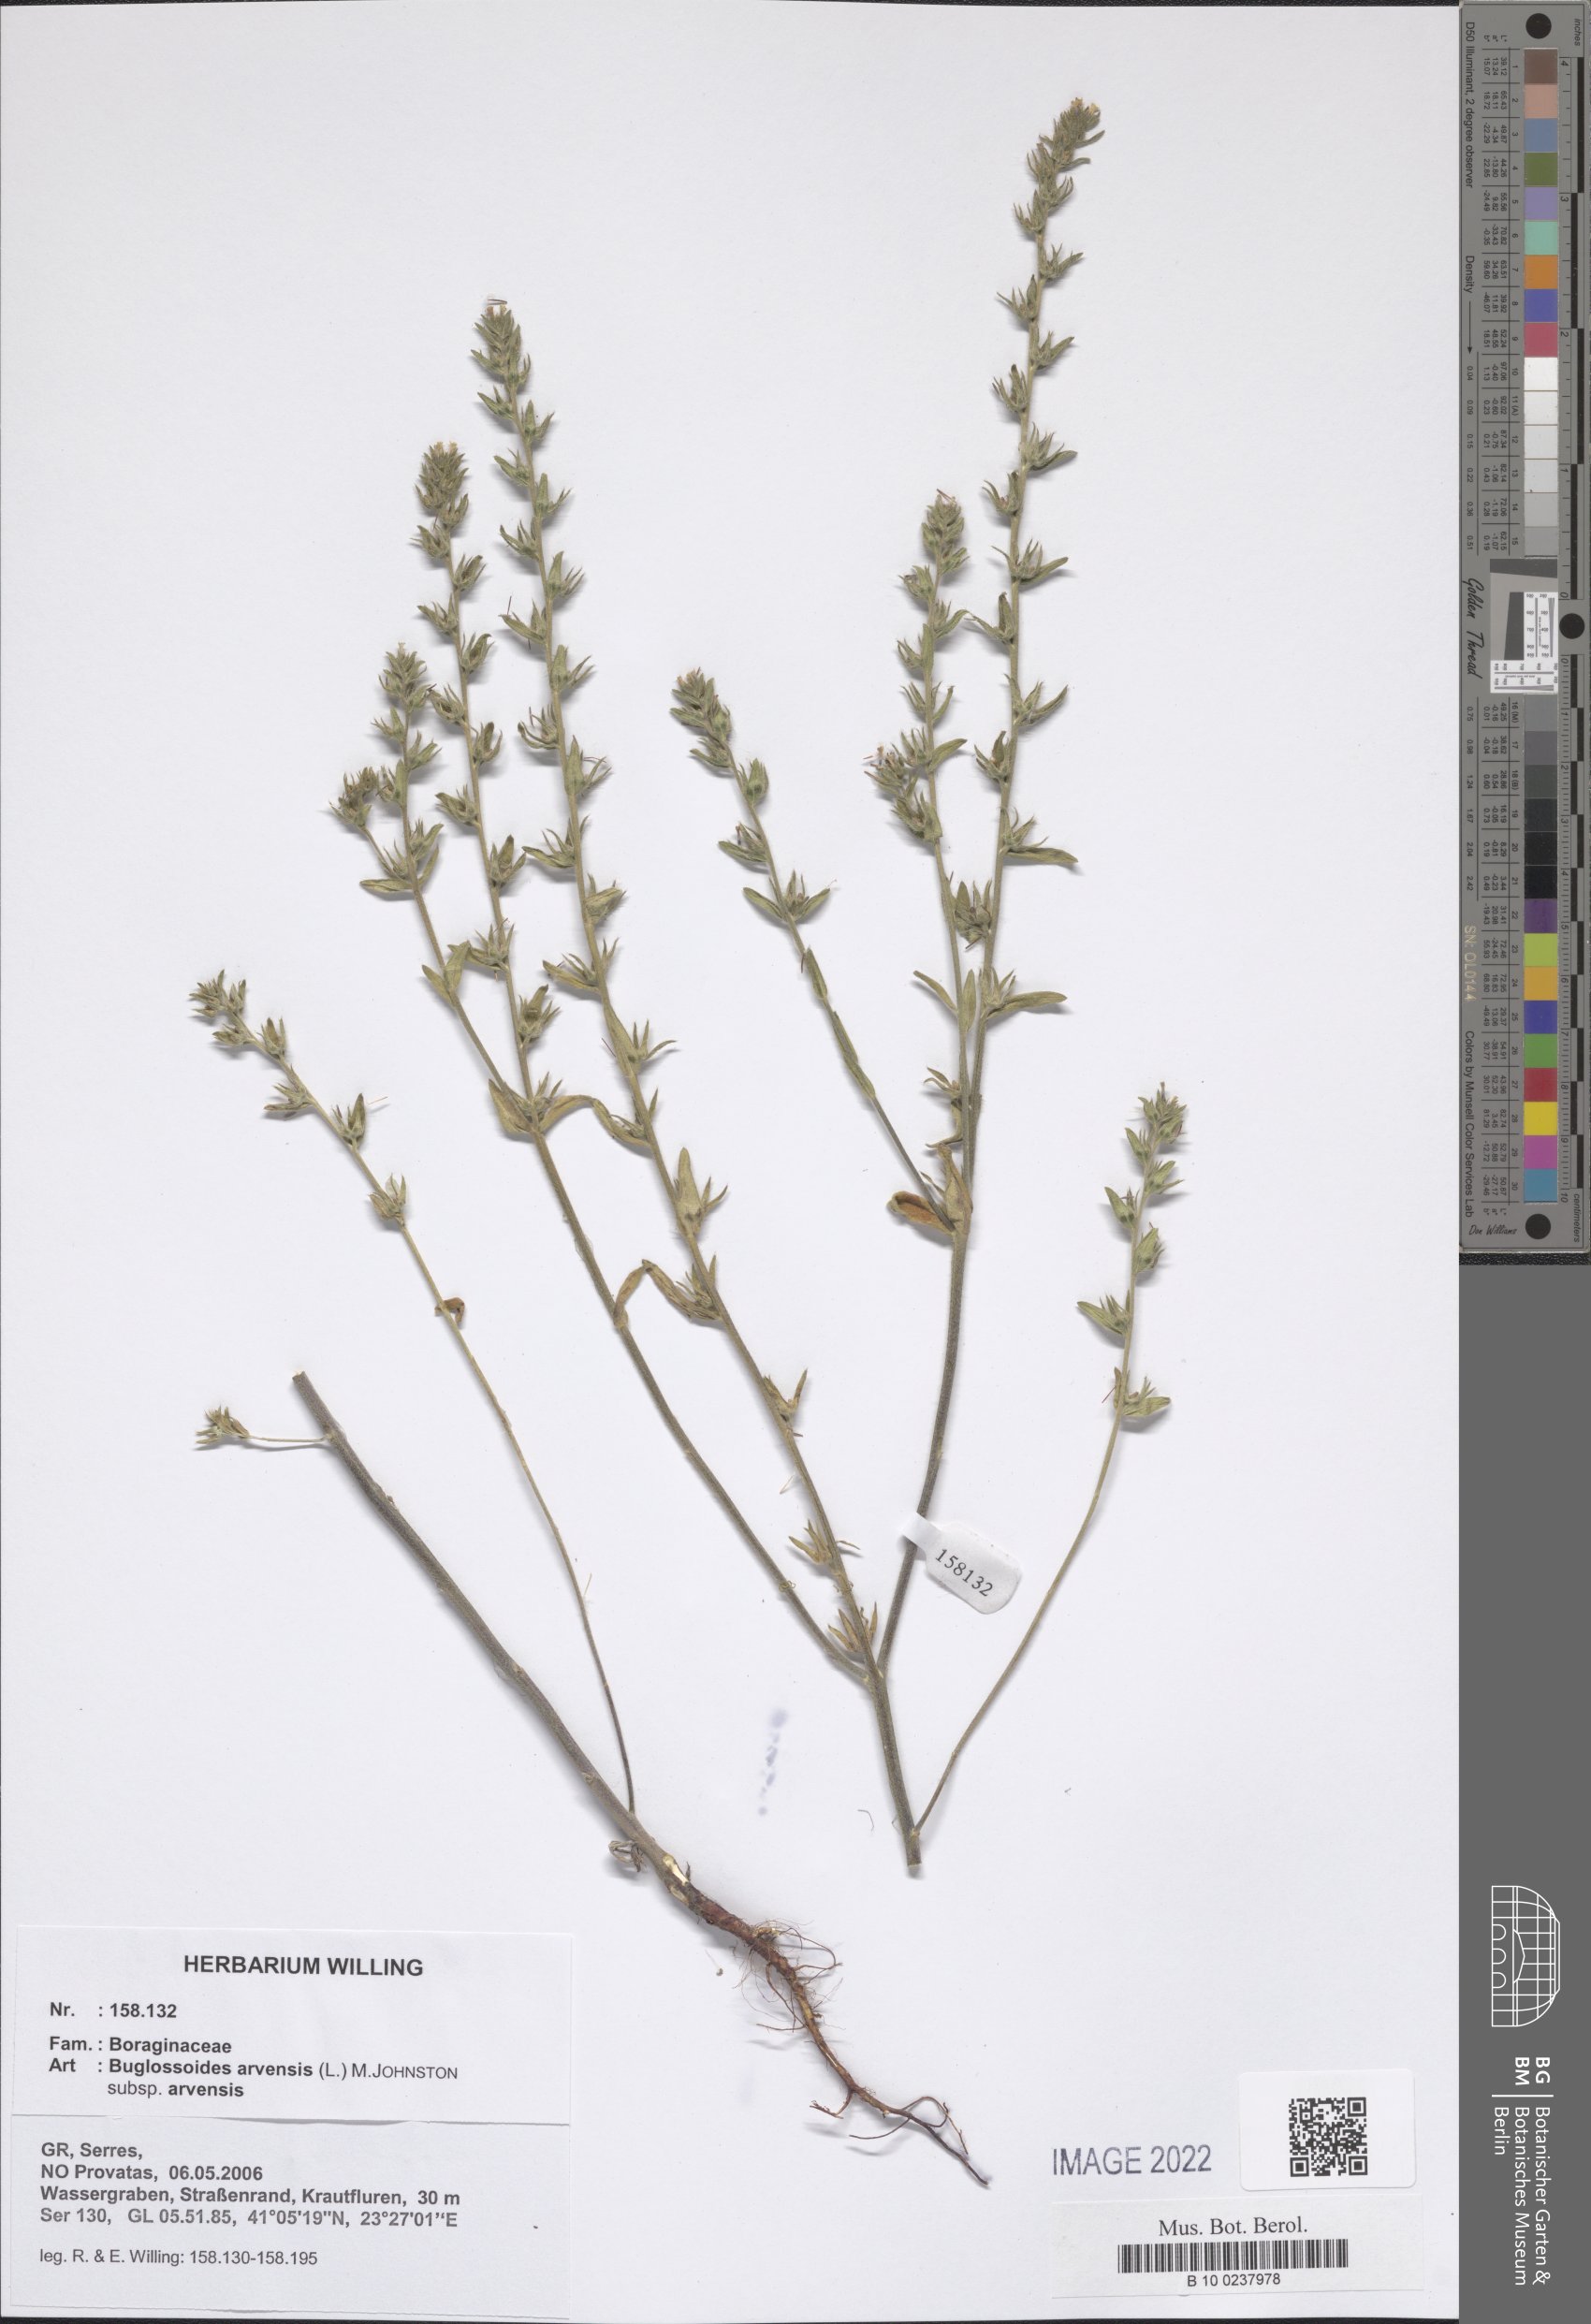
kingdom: Plantae
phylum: Tracheophyta
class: Magnoliopsida
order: Boraginales
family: Boraginaceae
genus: Buglossoides
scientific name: Buglossoides arvensis
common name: Corn gromwell
